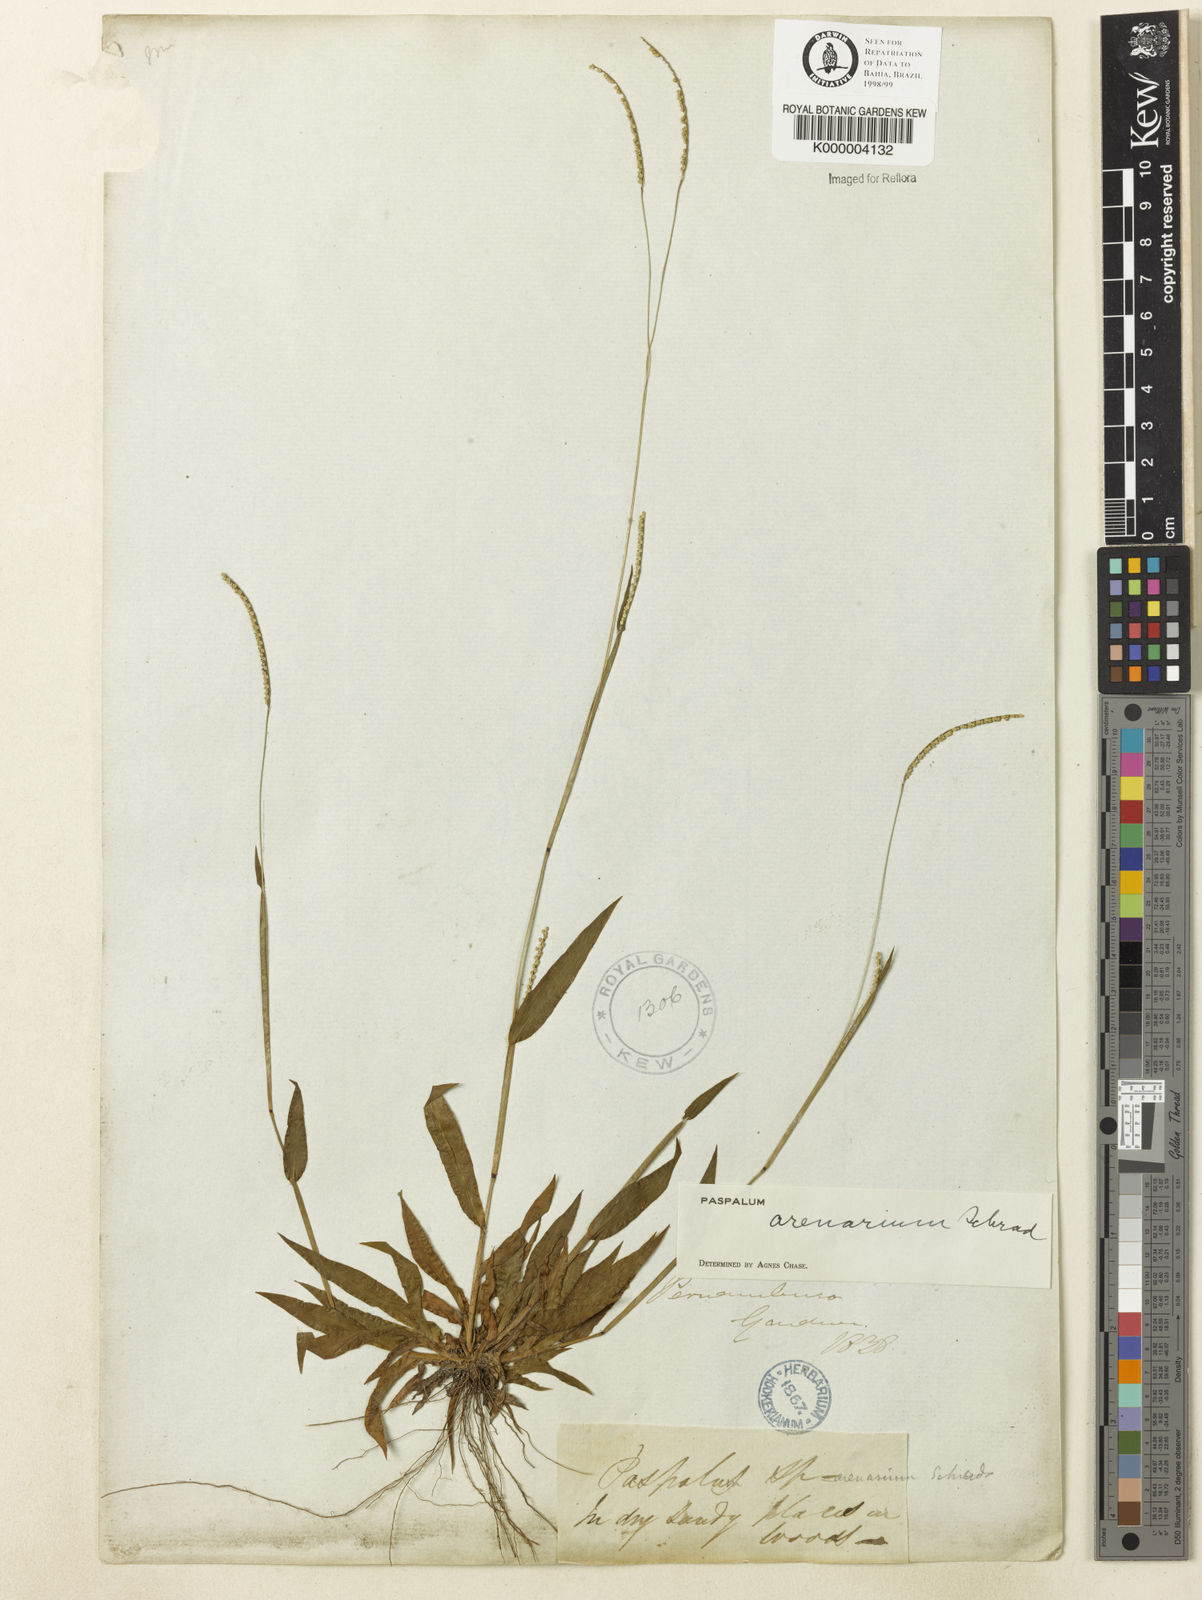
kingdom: Plantae
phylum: Tracheophyta
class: Liliopsida
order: Poales
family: Poaceae
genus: Paspalum
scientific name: Paspalum arenarium
